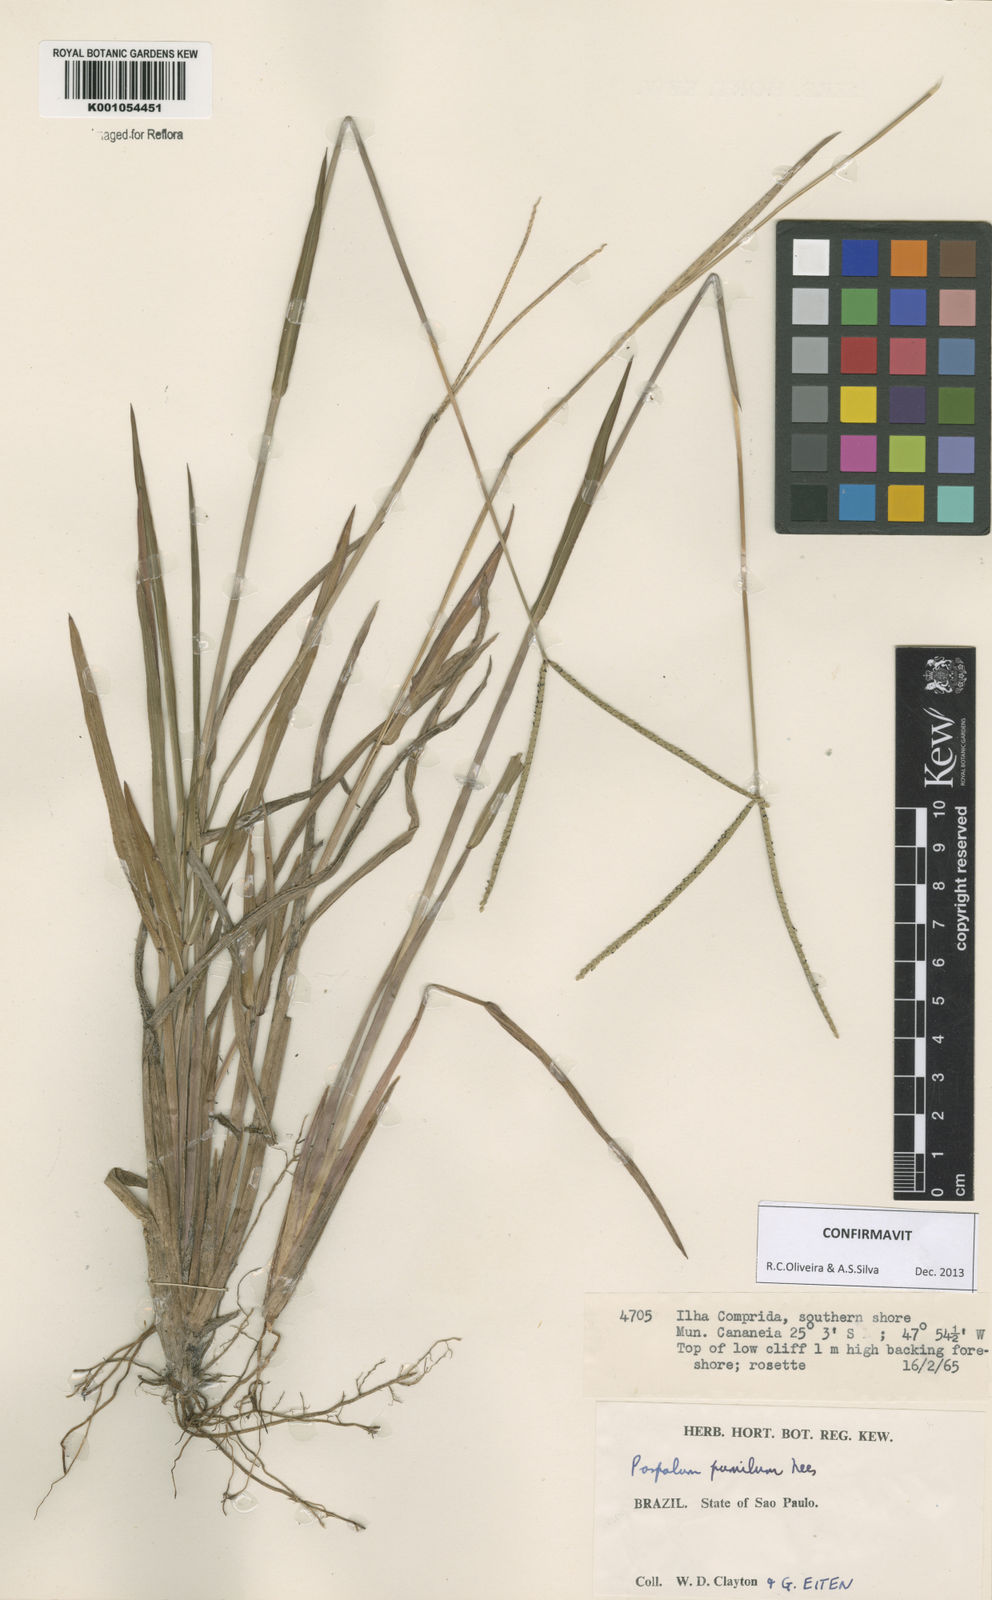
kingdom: Plantae
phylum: Tracheophyta
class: Liliopsida
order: Poales
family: Poaceae
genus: Paspalum
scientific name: Paspalum pumilum
